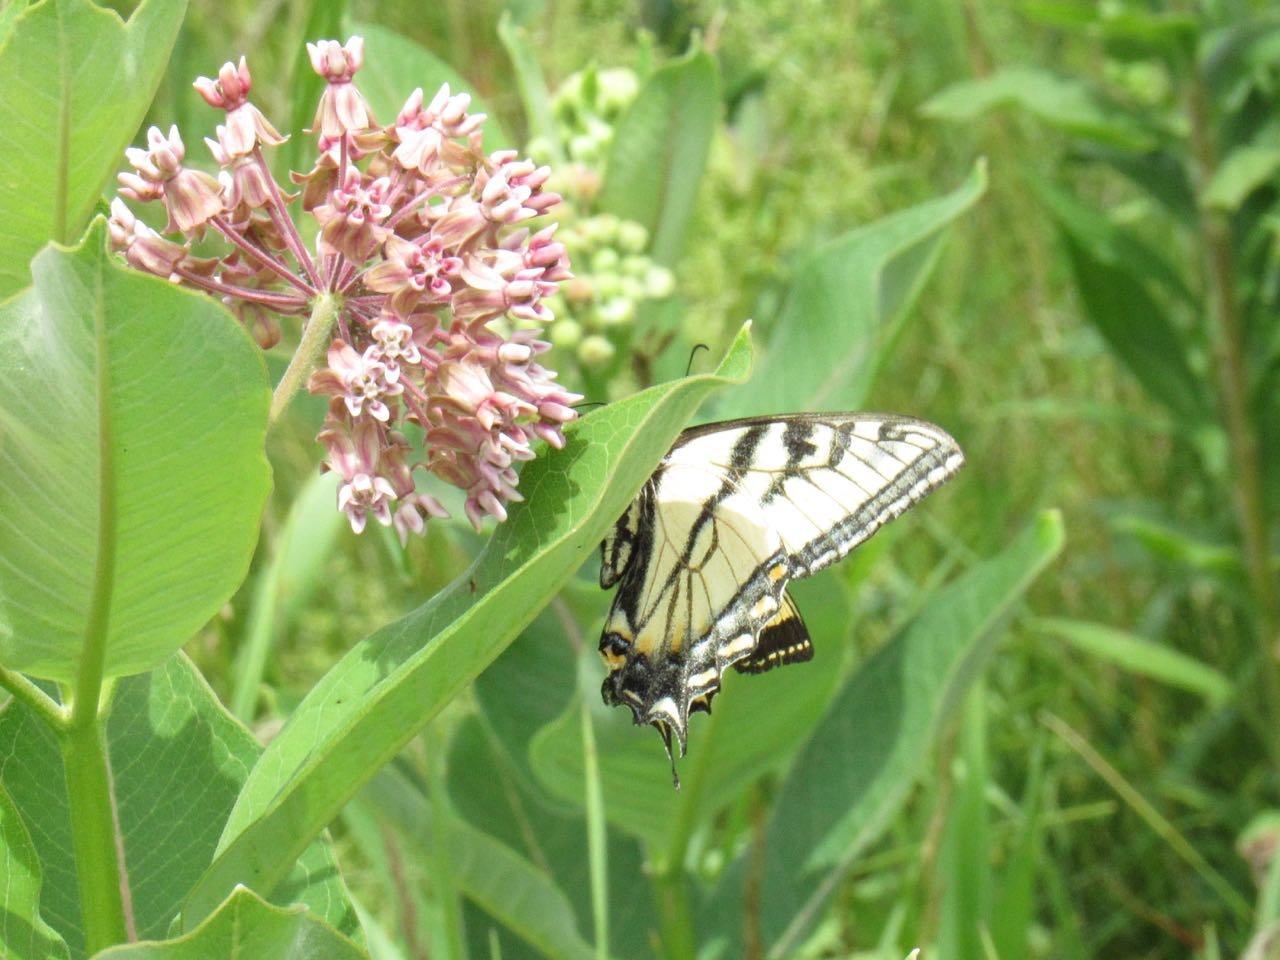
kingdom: Animalia
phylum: Arthropoda
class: Insecta
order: Lepidoptera
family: Papilionidae
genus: Pterourus
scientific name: Pterourus canadensis
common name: Canadian Tiger Swallowtail
